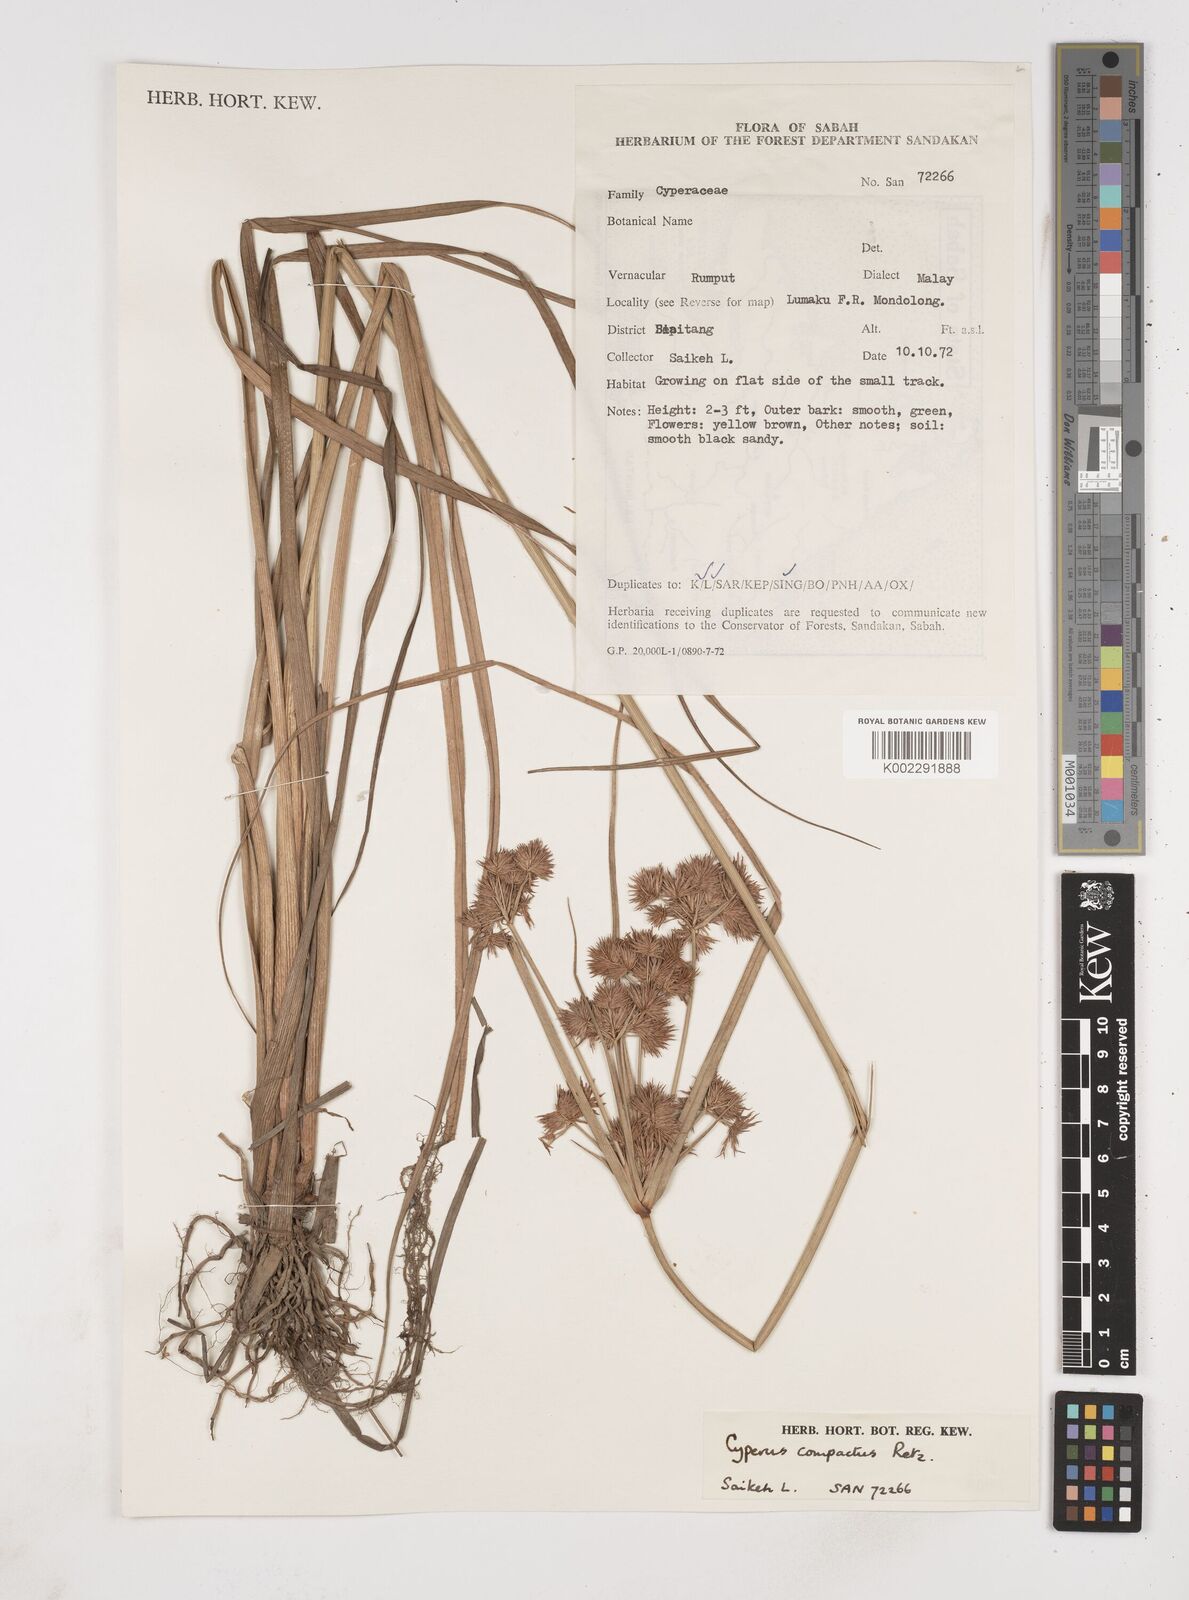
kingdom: Plantae
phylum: Tracheophyta
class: Liliopsida
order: Poales
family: Cyperaceae
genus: Cyperus
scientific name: Cyperus compactus
